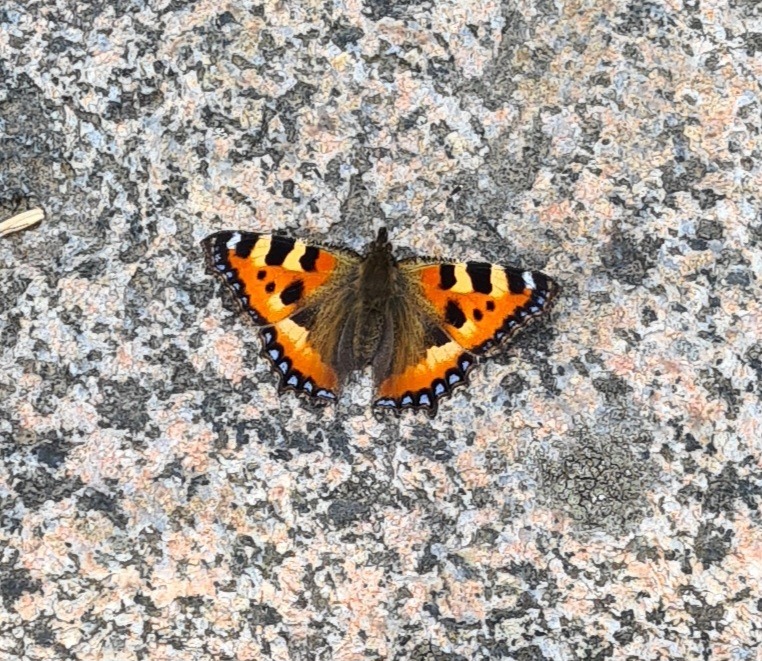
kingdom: Animalia
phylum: Arthropoda
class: Insecta
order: Lepidoptera
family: Nymphalidae
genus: Aglais
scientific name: Aglais urticae
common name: Nældens takvinge
